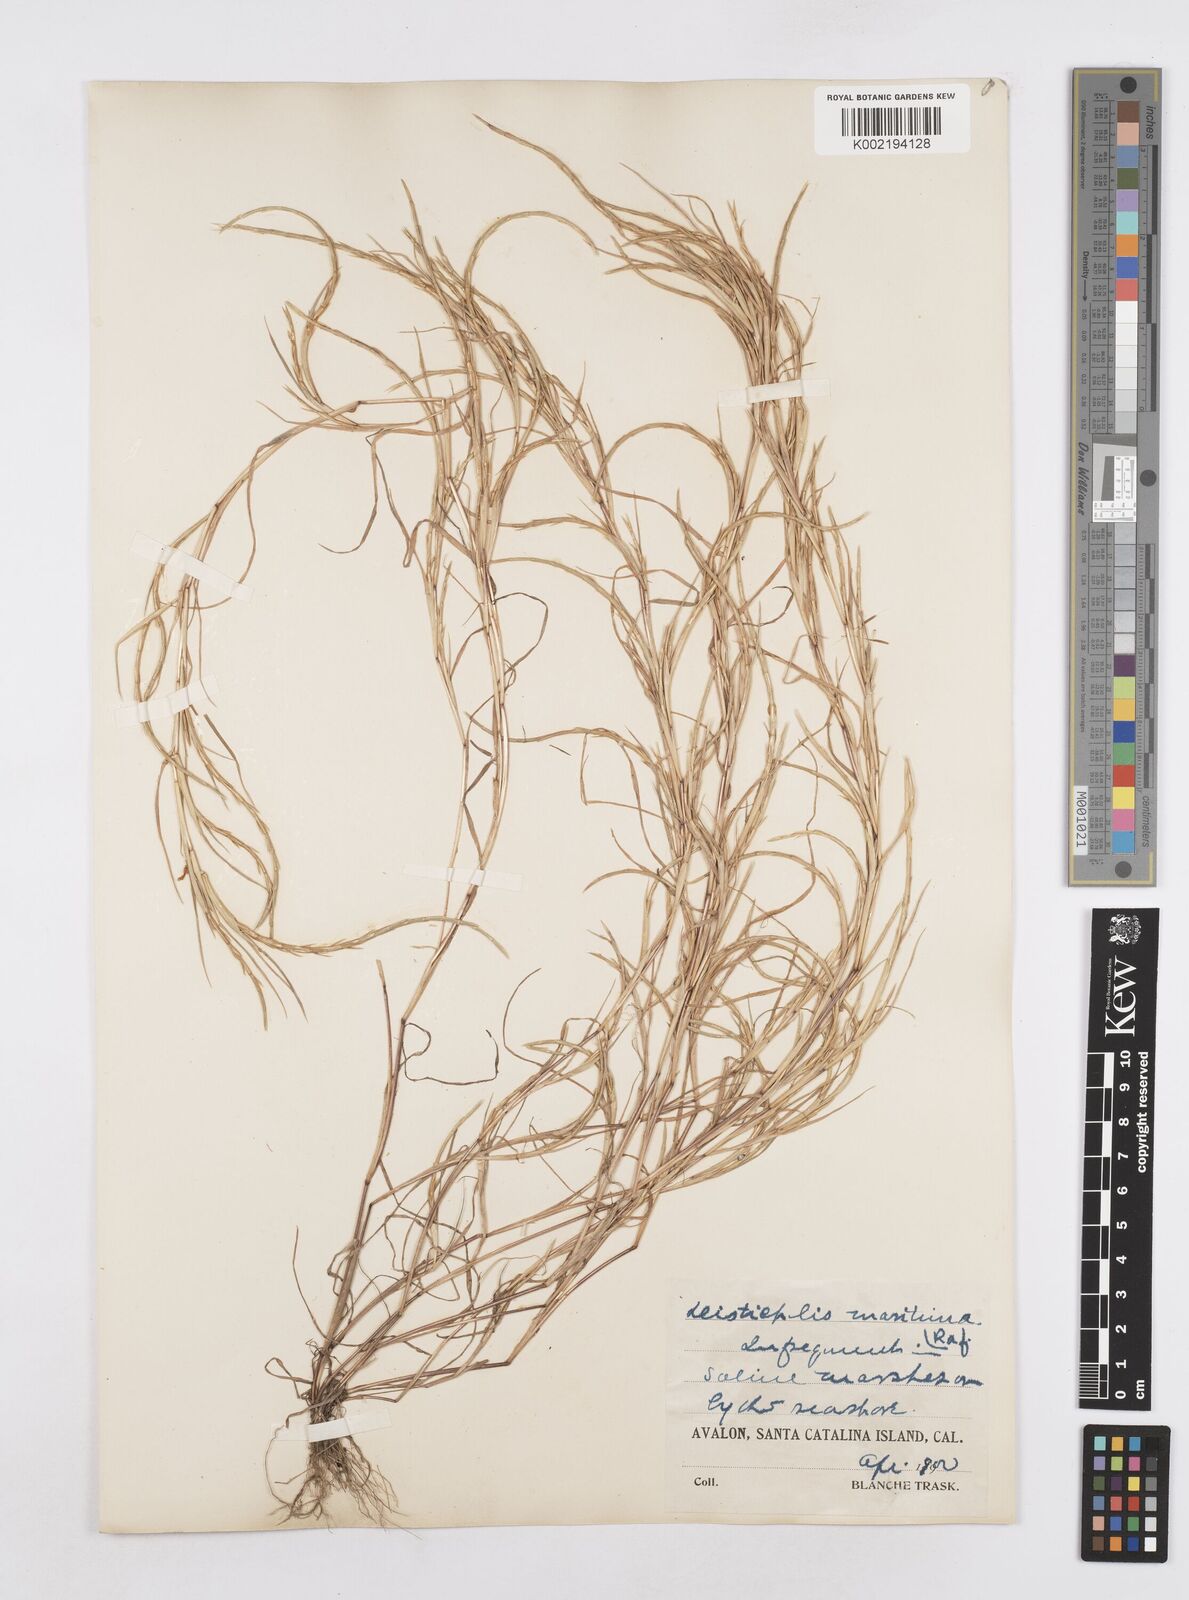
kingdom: Plantae
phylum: Tracheophyta
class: Liliopsida
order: Poales
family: Poaceae
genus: Parapholis
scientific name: Parapholis incurva
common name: Curved sicklegrass
